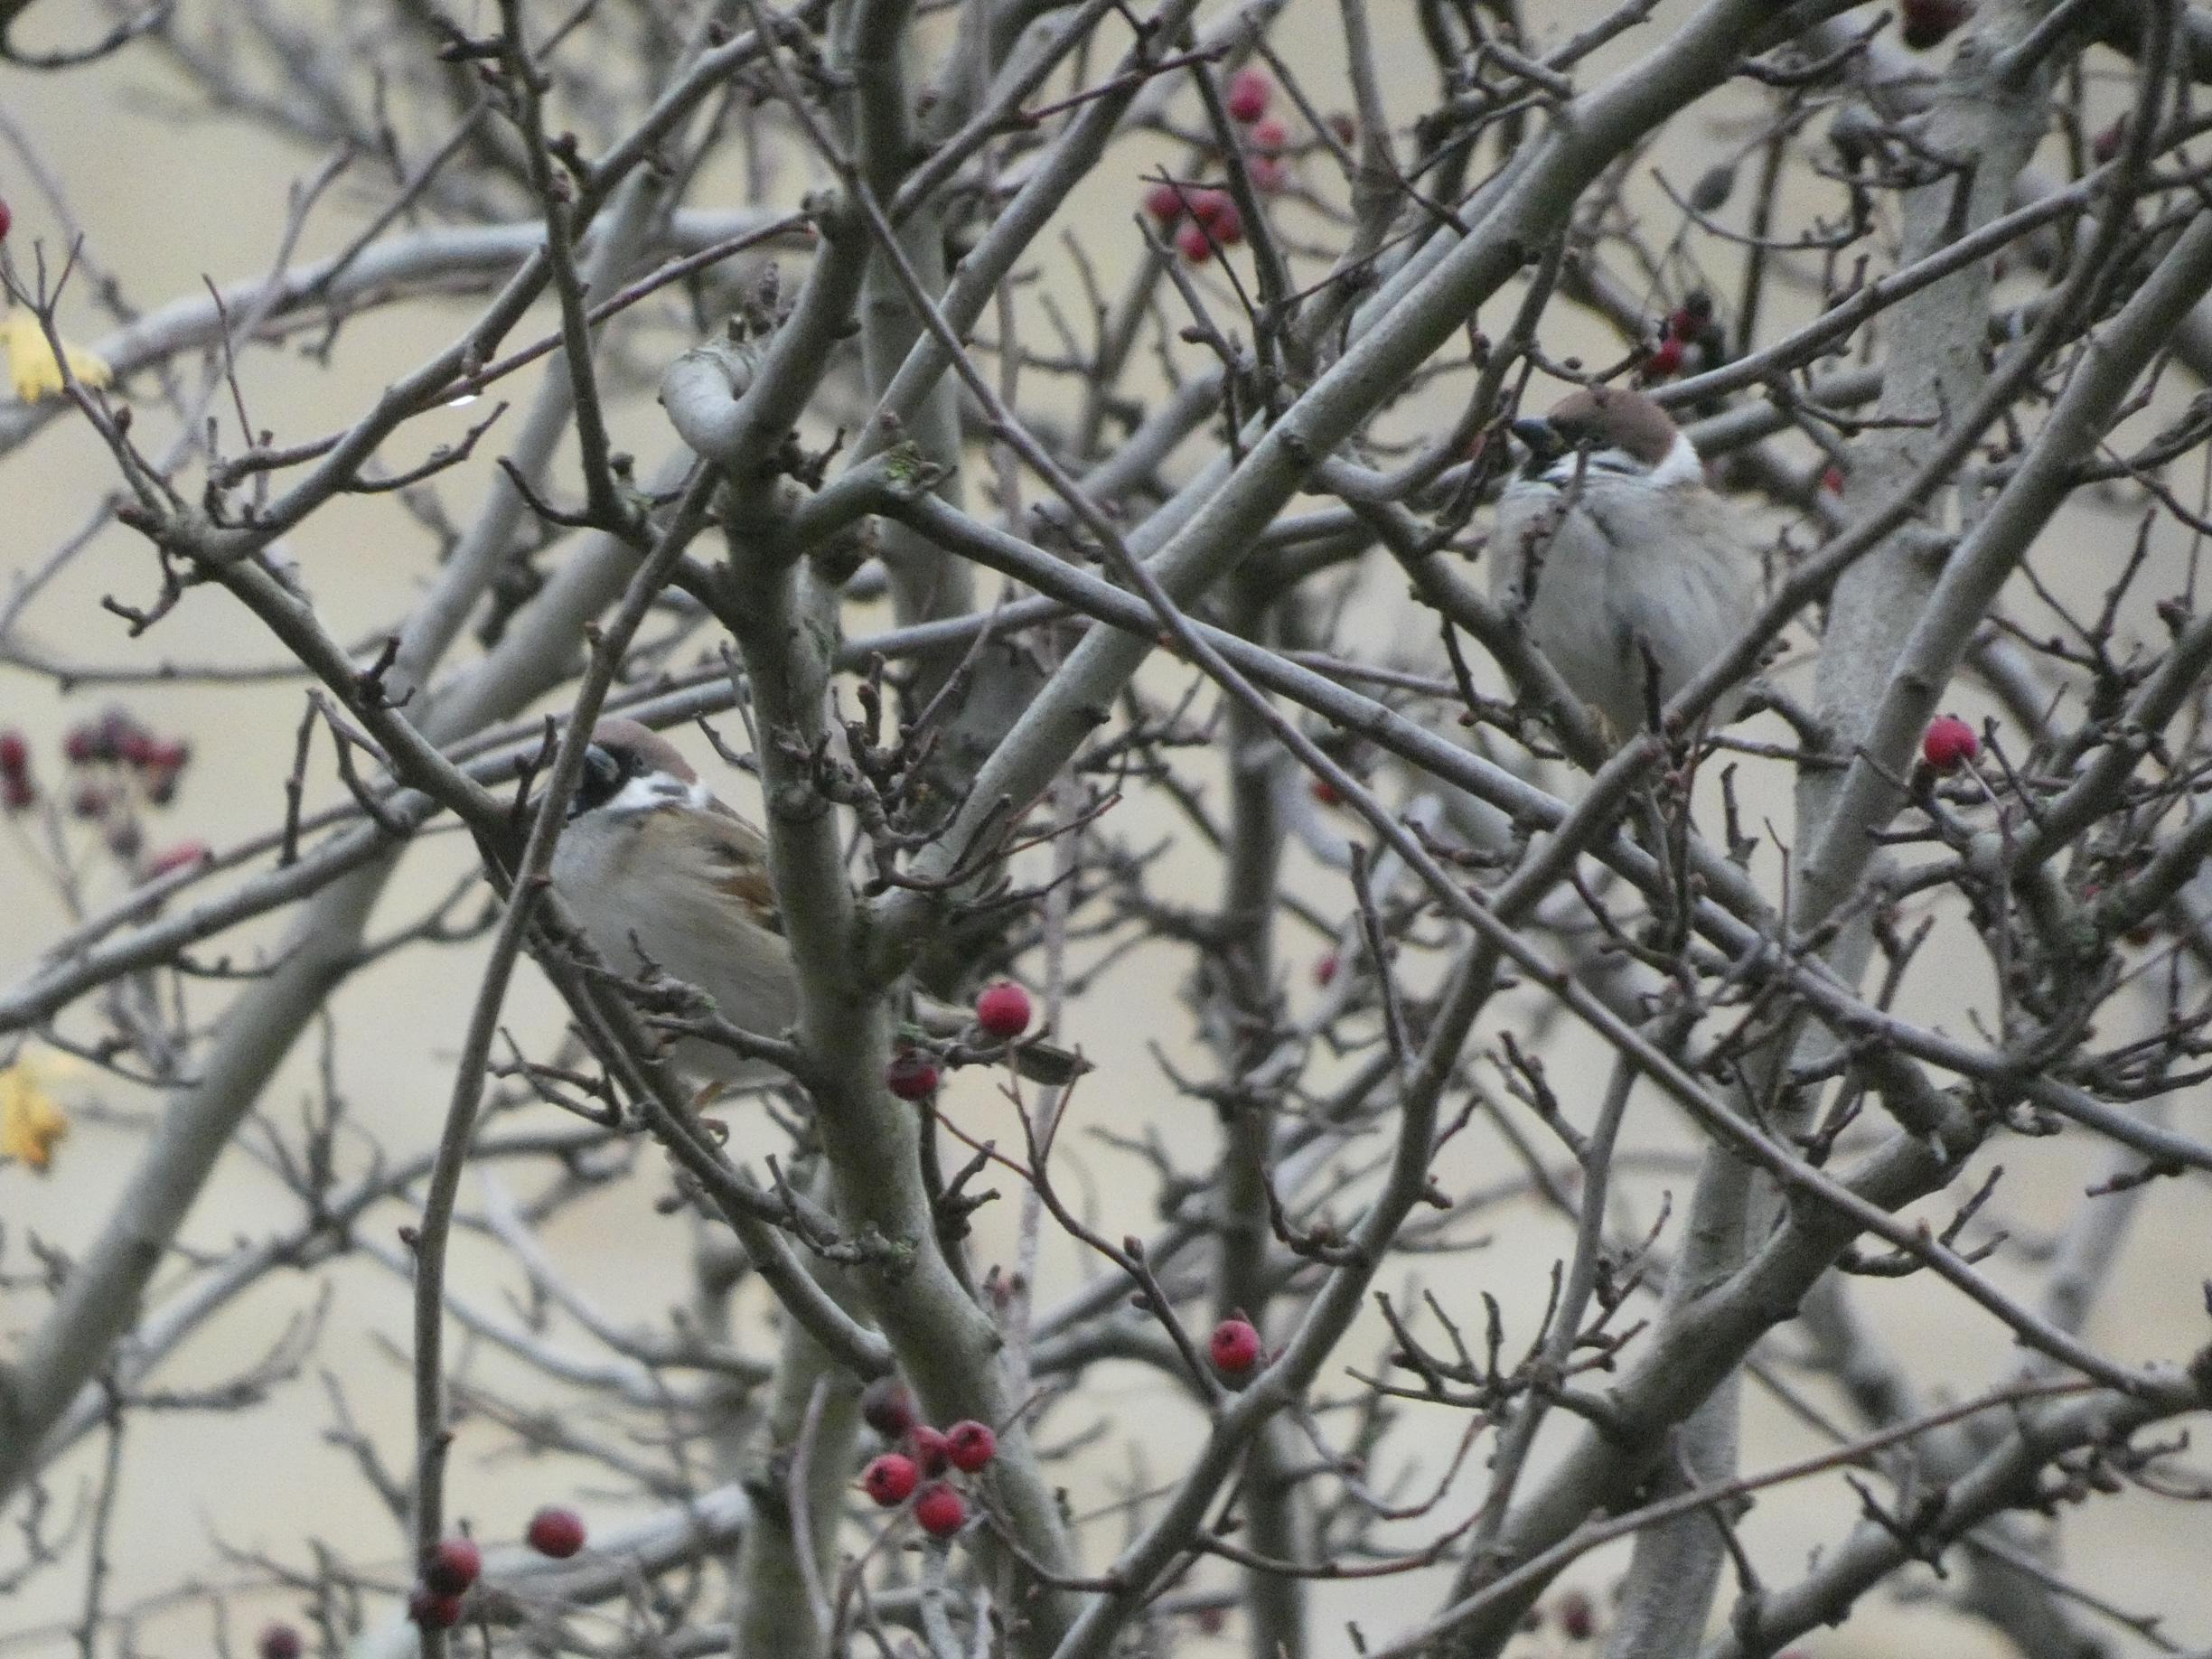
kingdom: Animalia
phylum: Chordata
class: Aves
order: Passeriformes
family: Passeridae
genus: Passer
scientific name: Passer montanus
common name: Skovspurv
